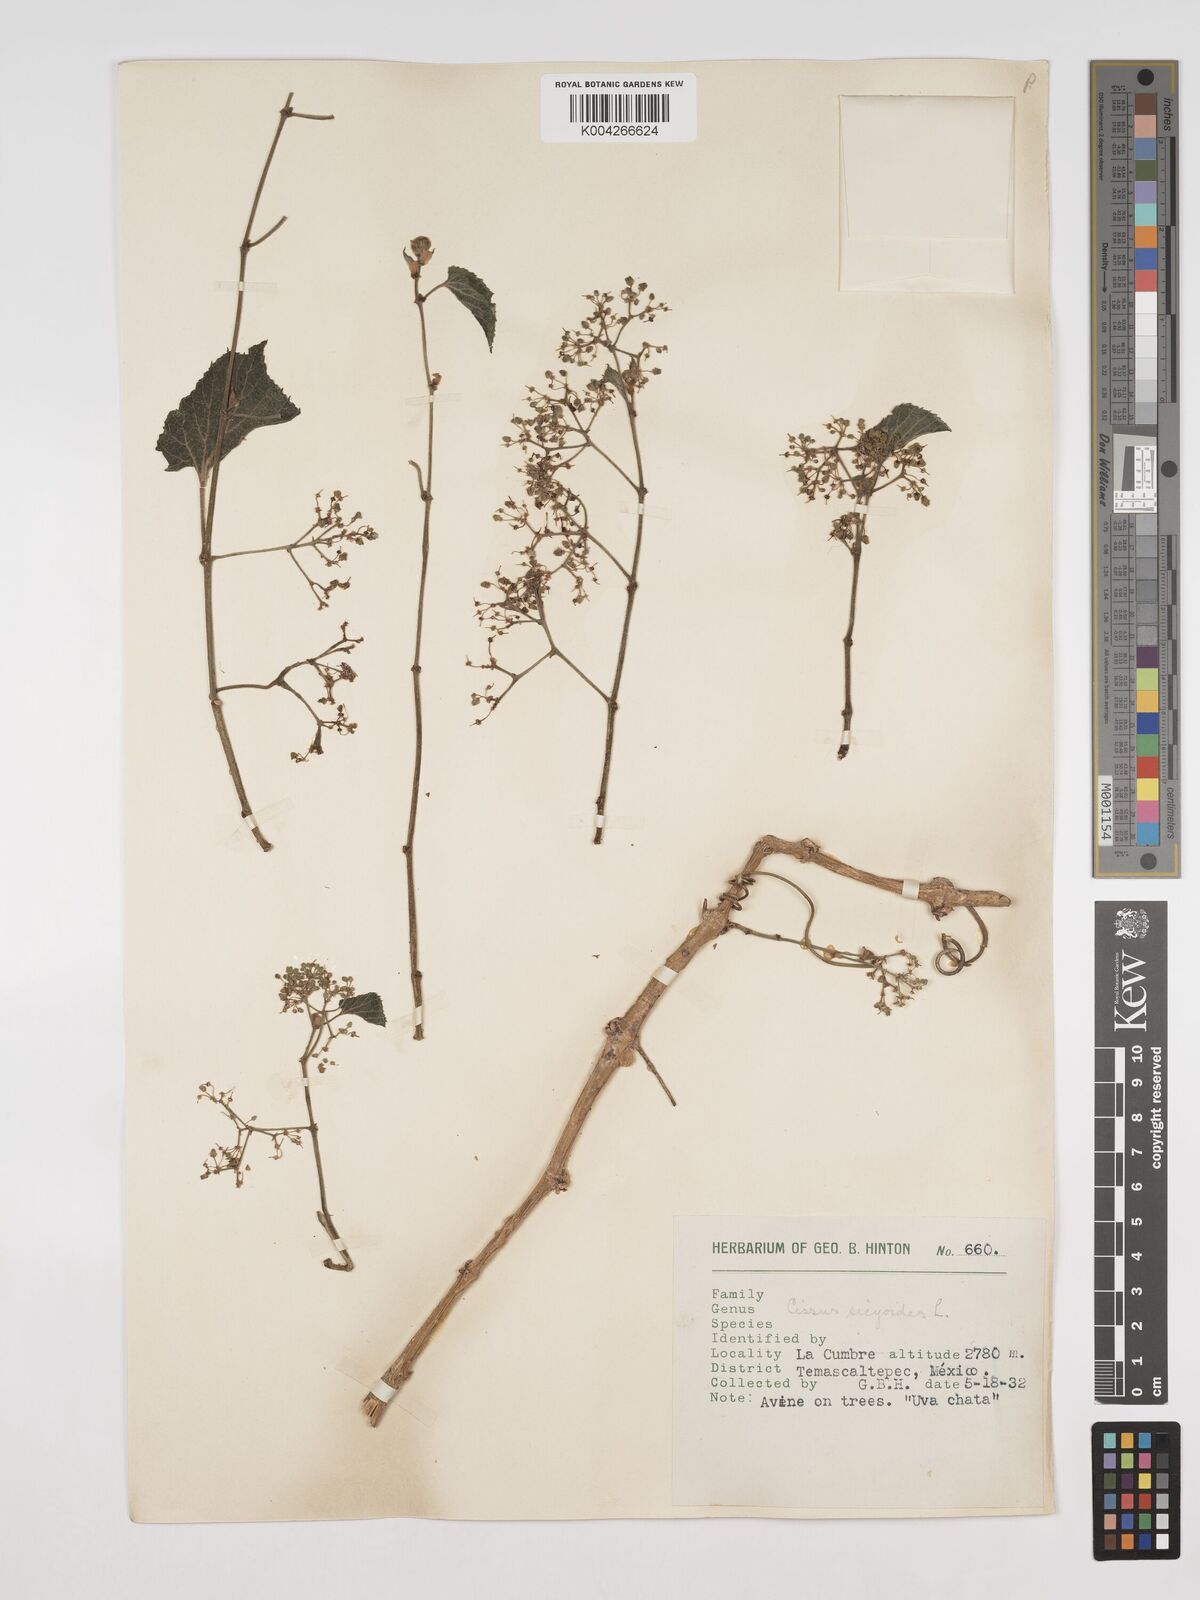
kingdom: Plantae
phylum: Tracheophyta
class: Magnoliopsida
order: Vitales
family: Vitaceae
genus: Cissus
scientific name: Cissus
